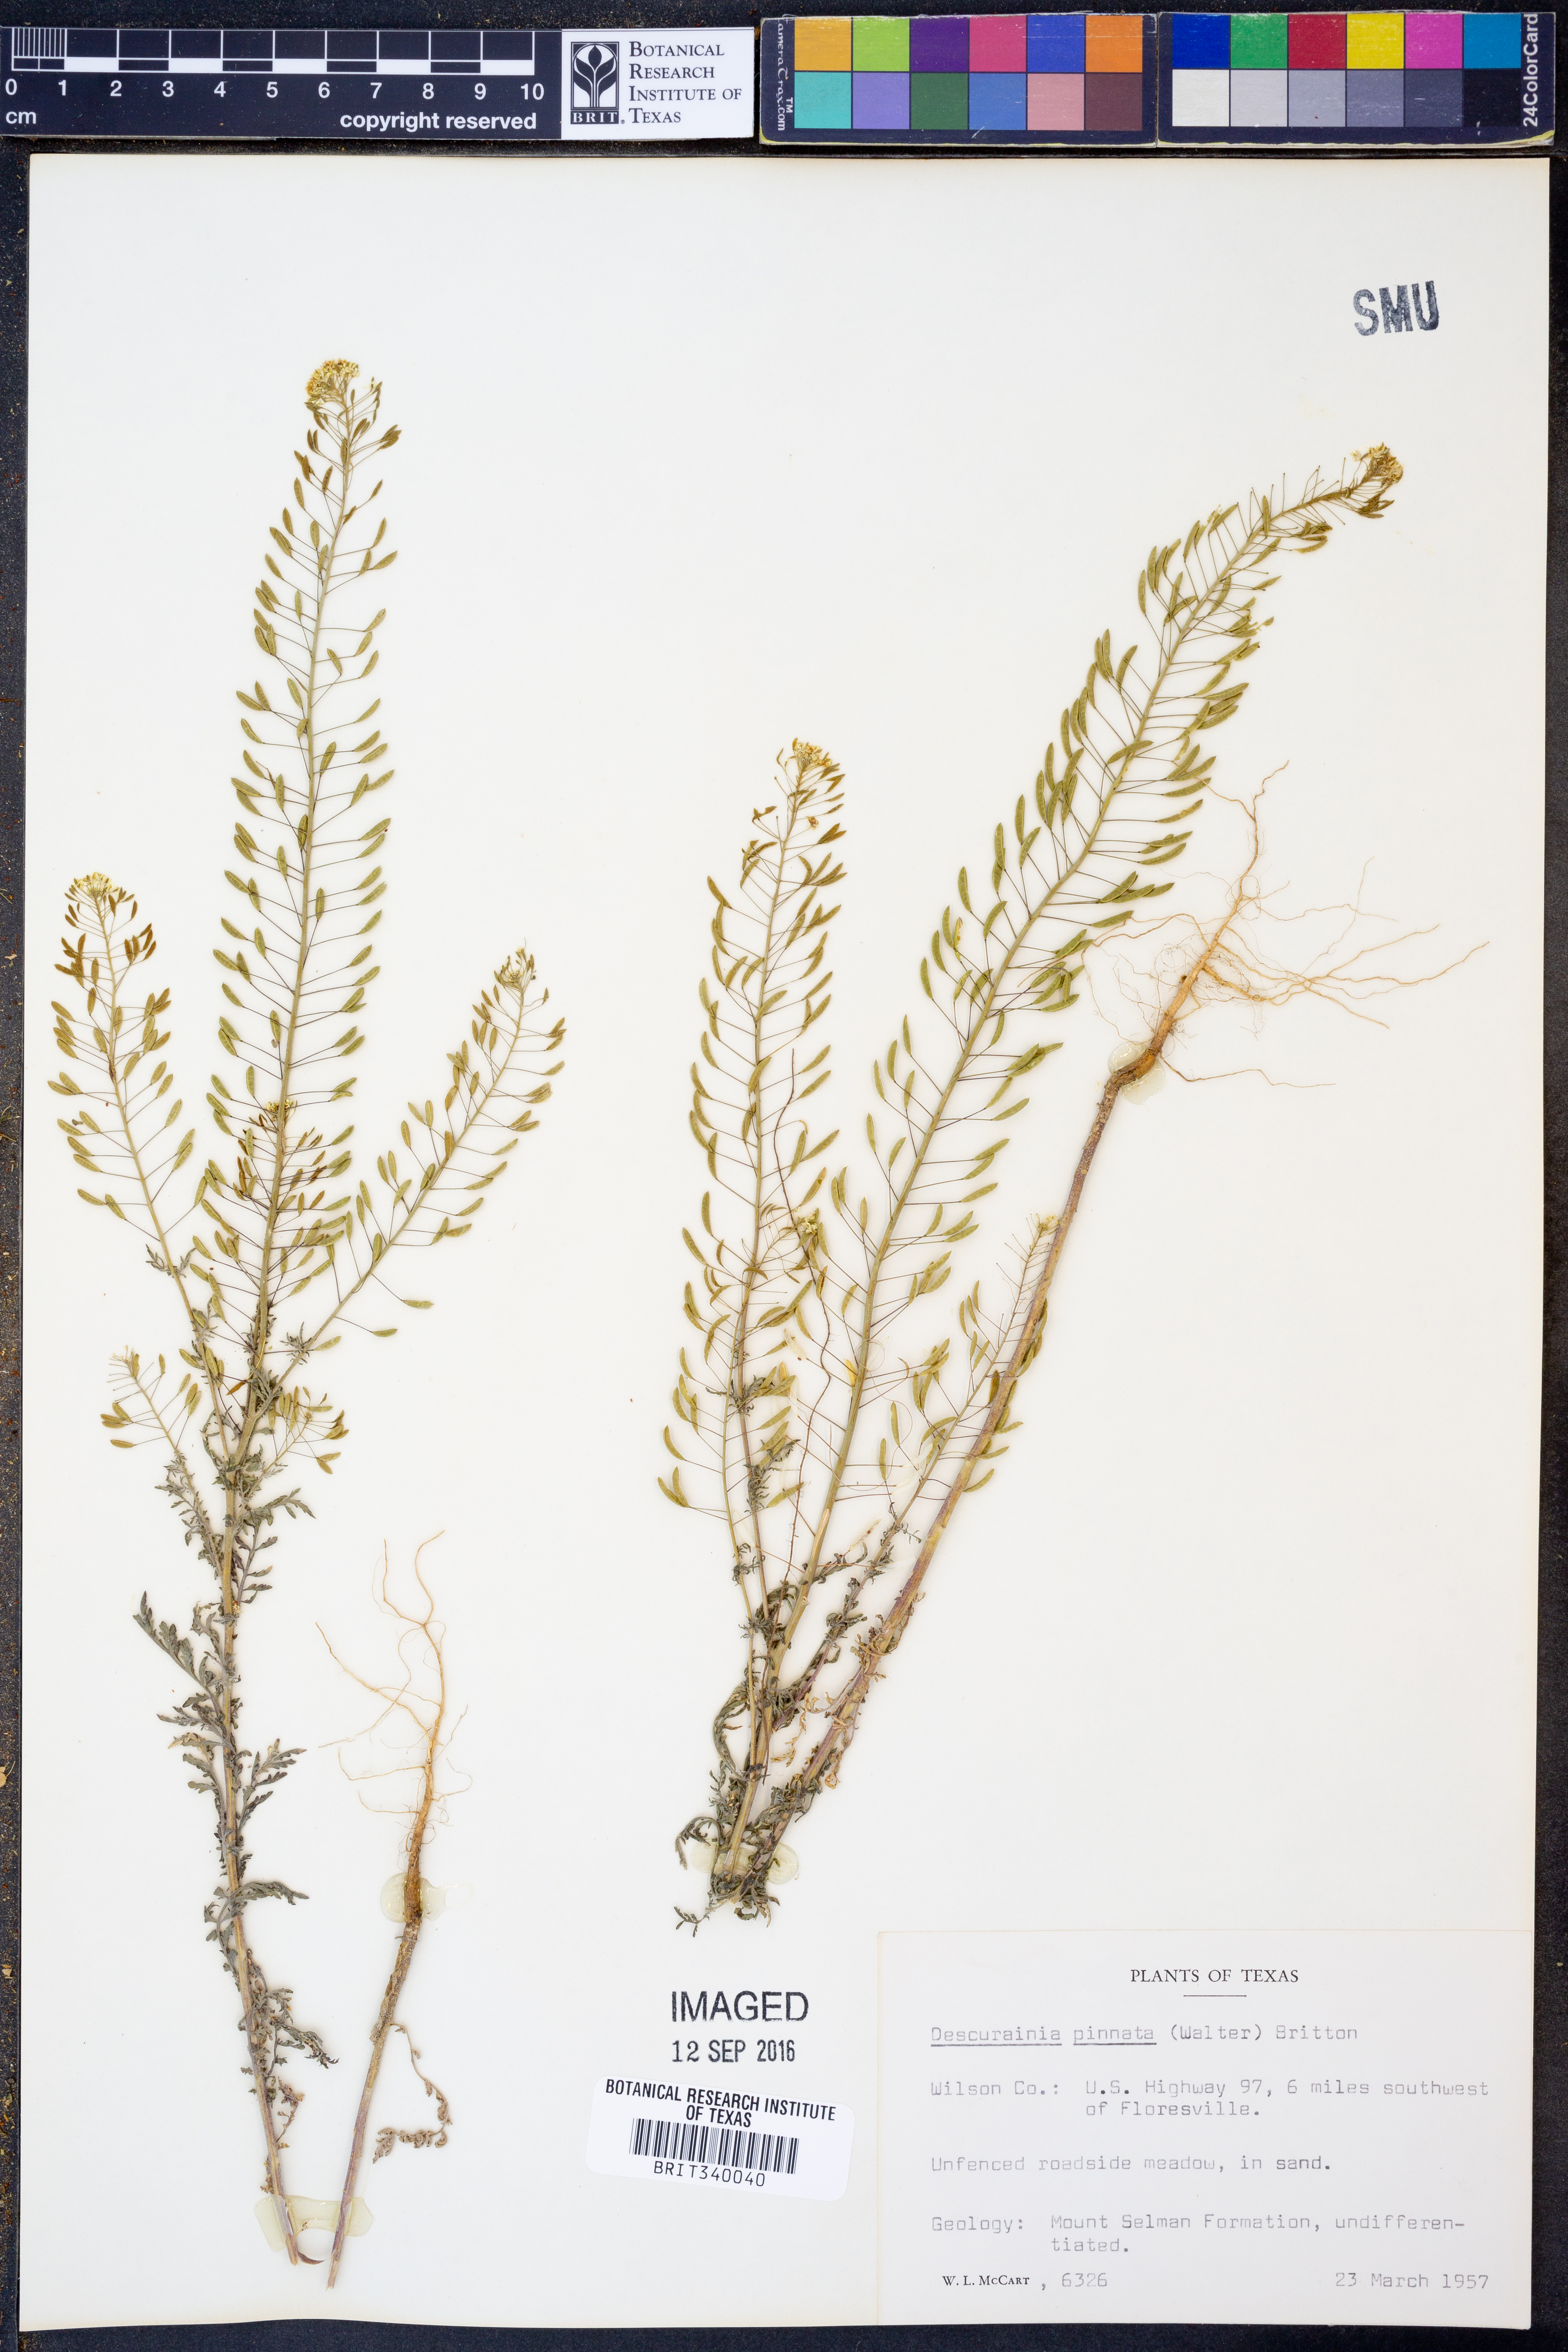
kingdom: Plantae
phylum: Tracheophyta
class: Magnoliopsida
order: Brassicales
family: Brassicaceae
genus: Descurainia
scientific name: Descurainia pinnata
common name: Western tansy mustard
